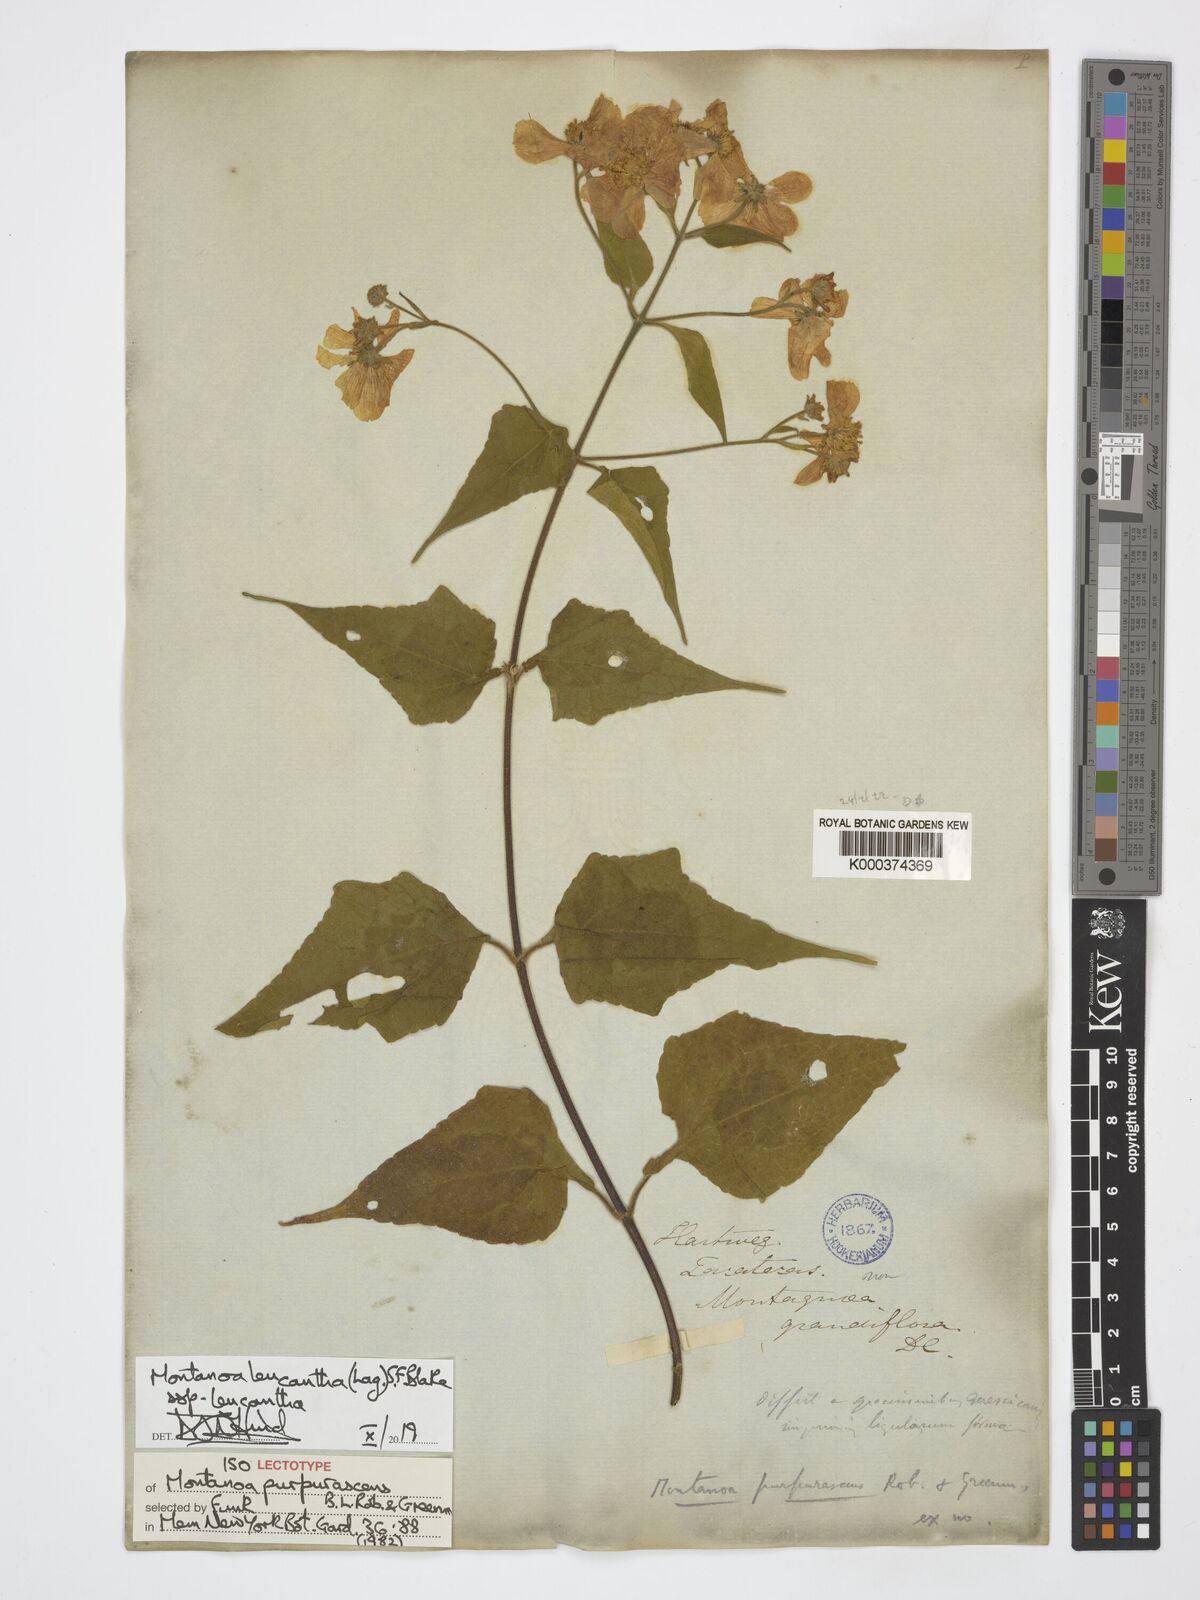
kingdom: Plantae
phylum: Tracheophyta
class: Magnoliopsida
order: Asterales
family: Asteraceae
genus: Montanoa
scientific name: Montanoa leucantha
